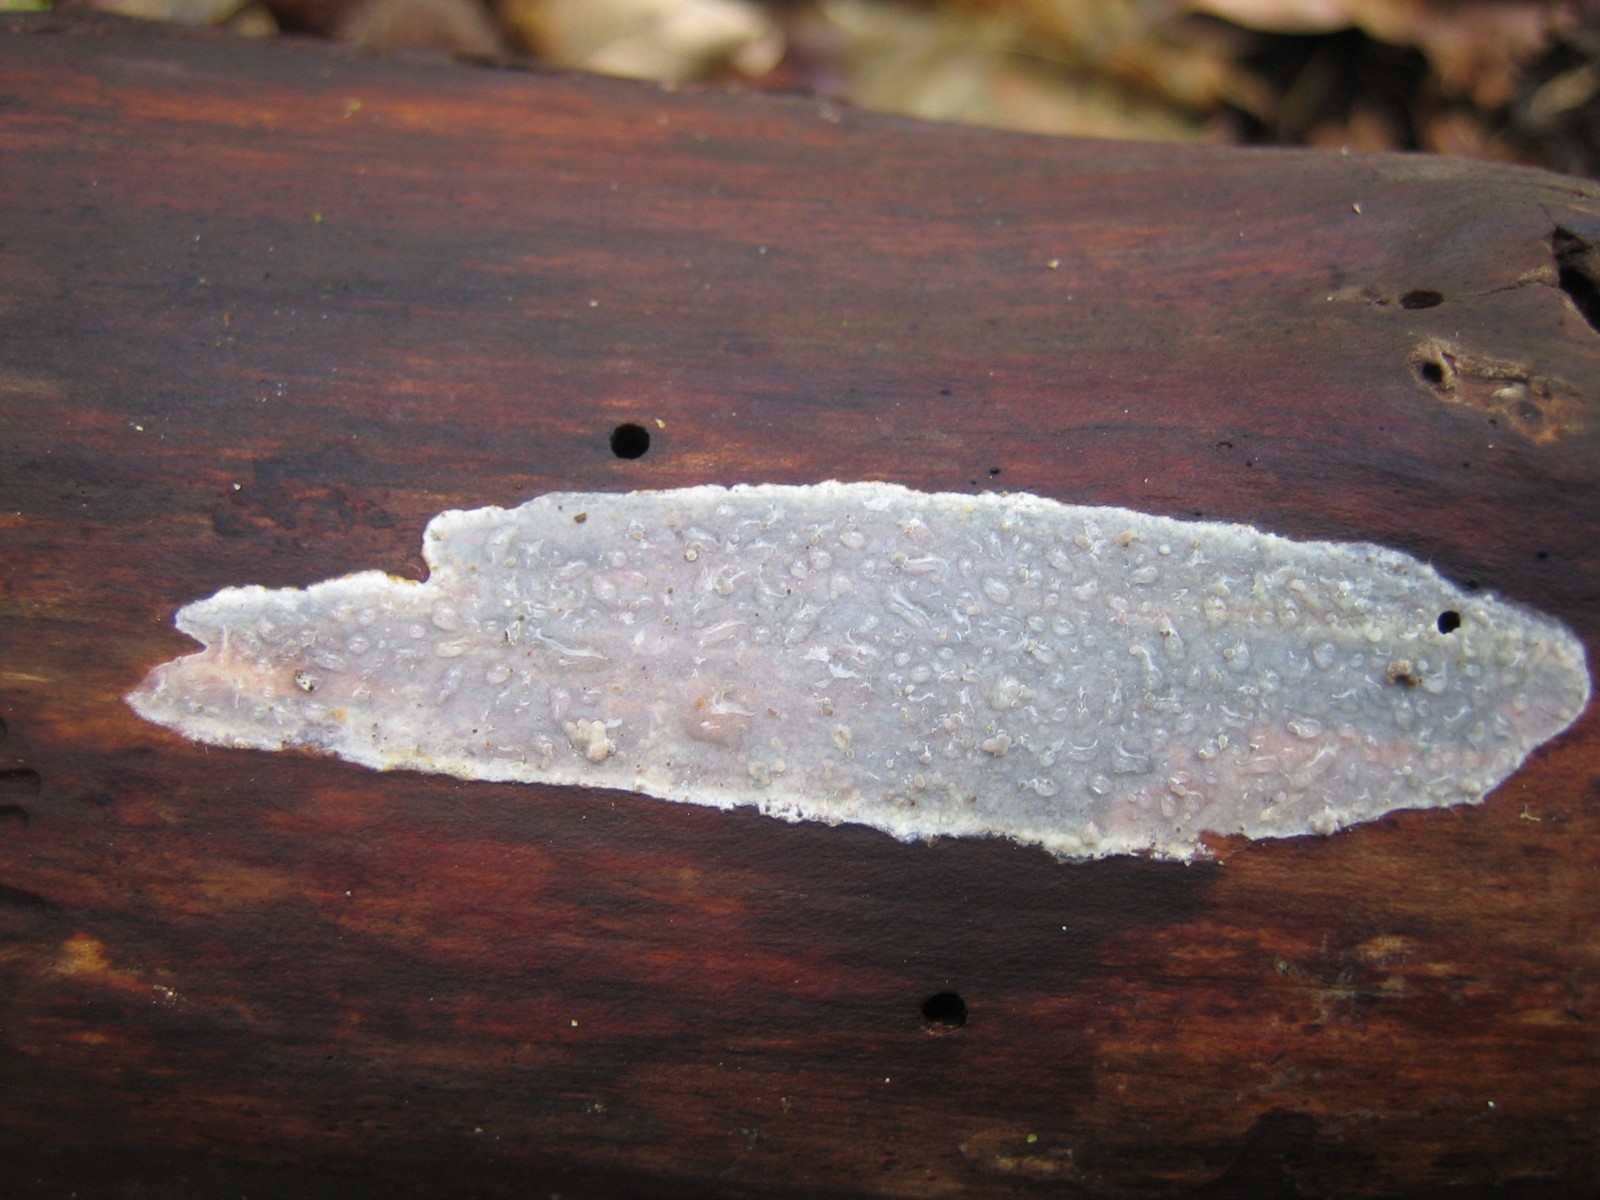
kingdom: Fungi
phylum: Basidiomycota
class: Agaricomycetes
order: Agaricales
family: Radulomycetaceae
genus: Radulomyces
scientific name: Radulomyces confluens
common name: glat naftalinskind
